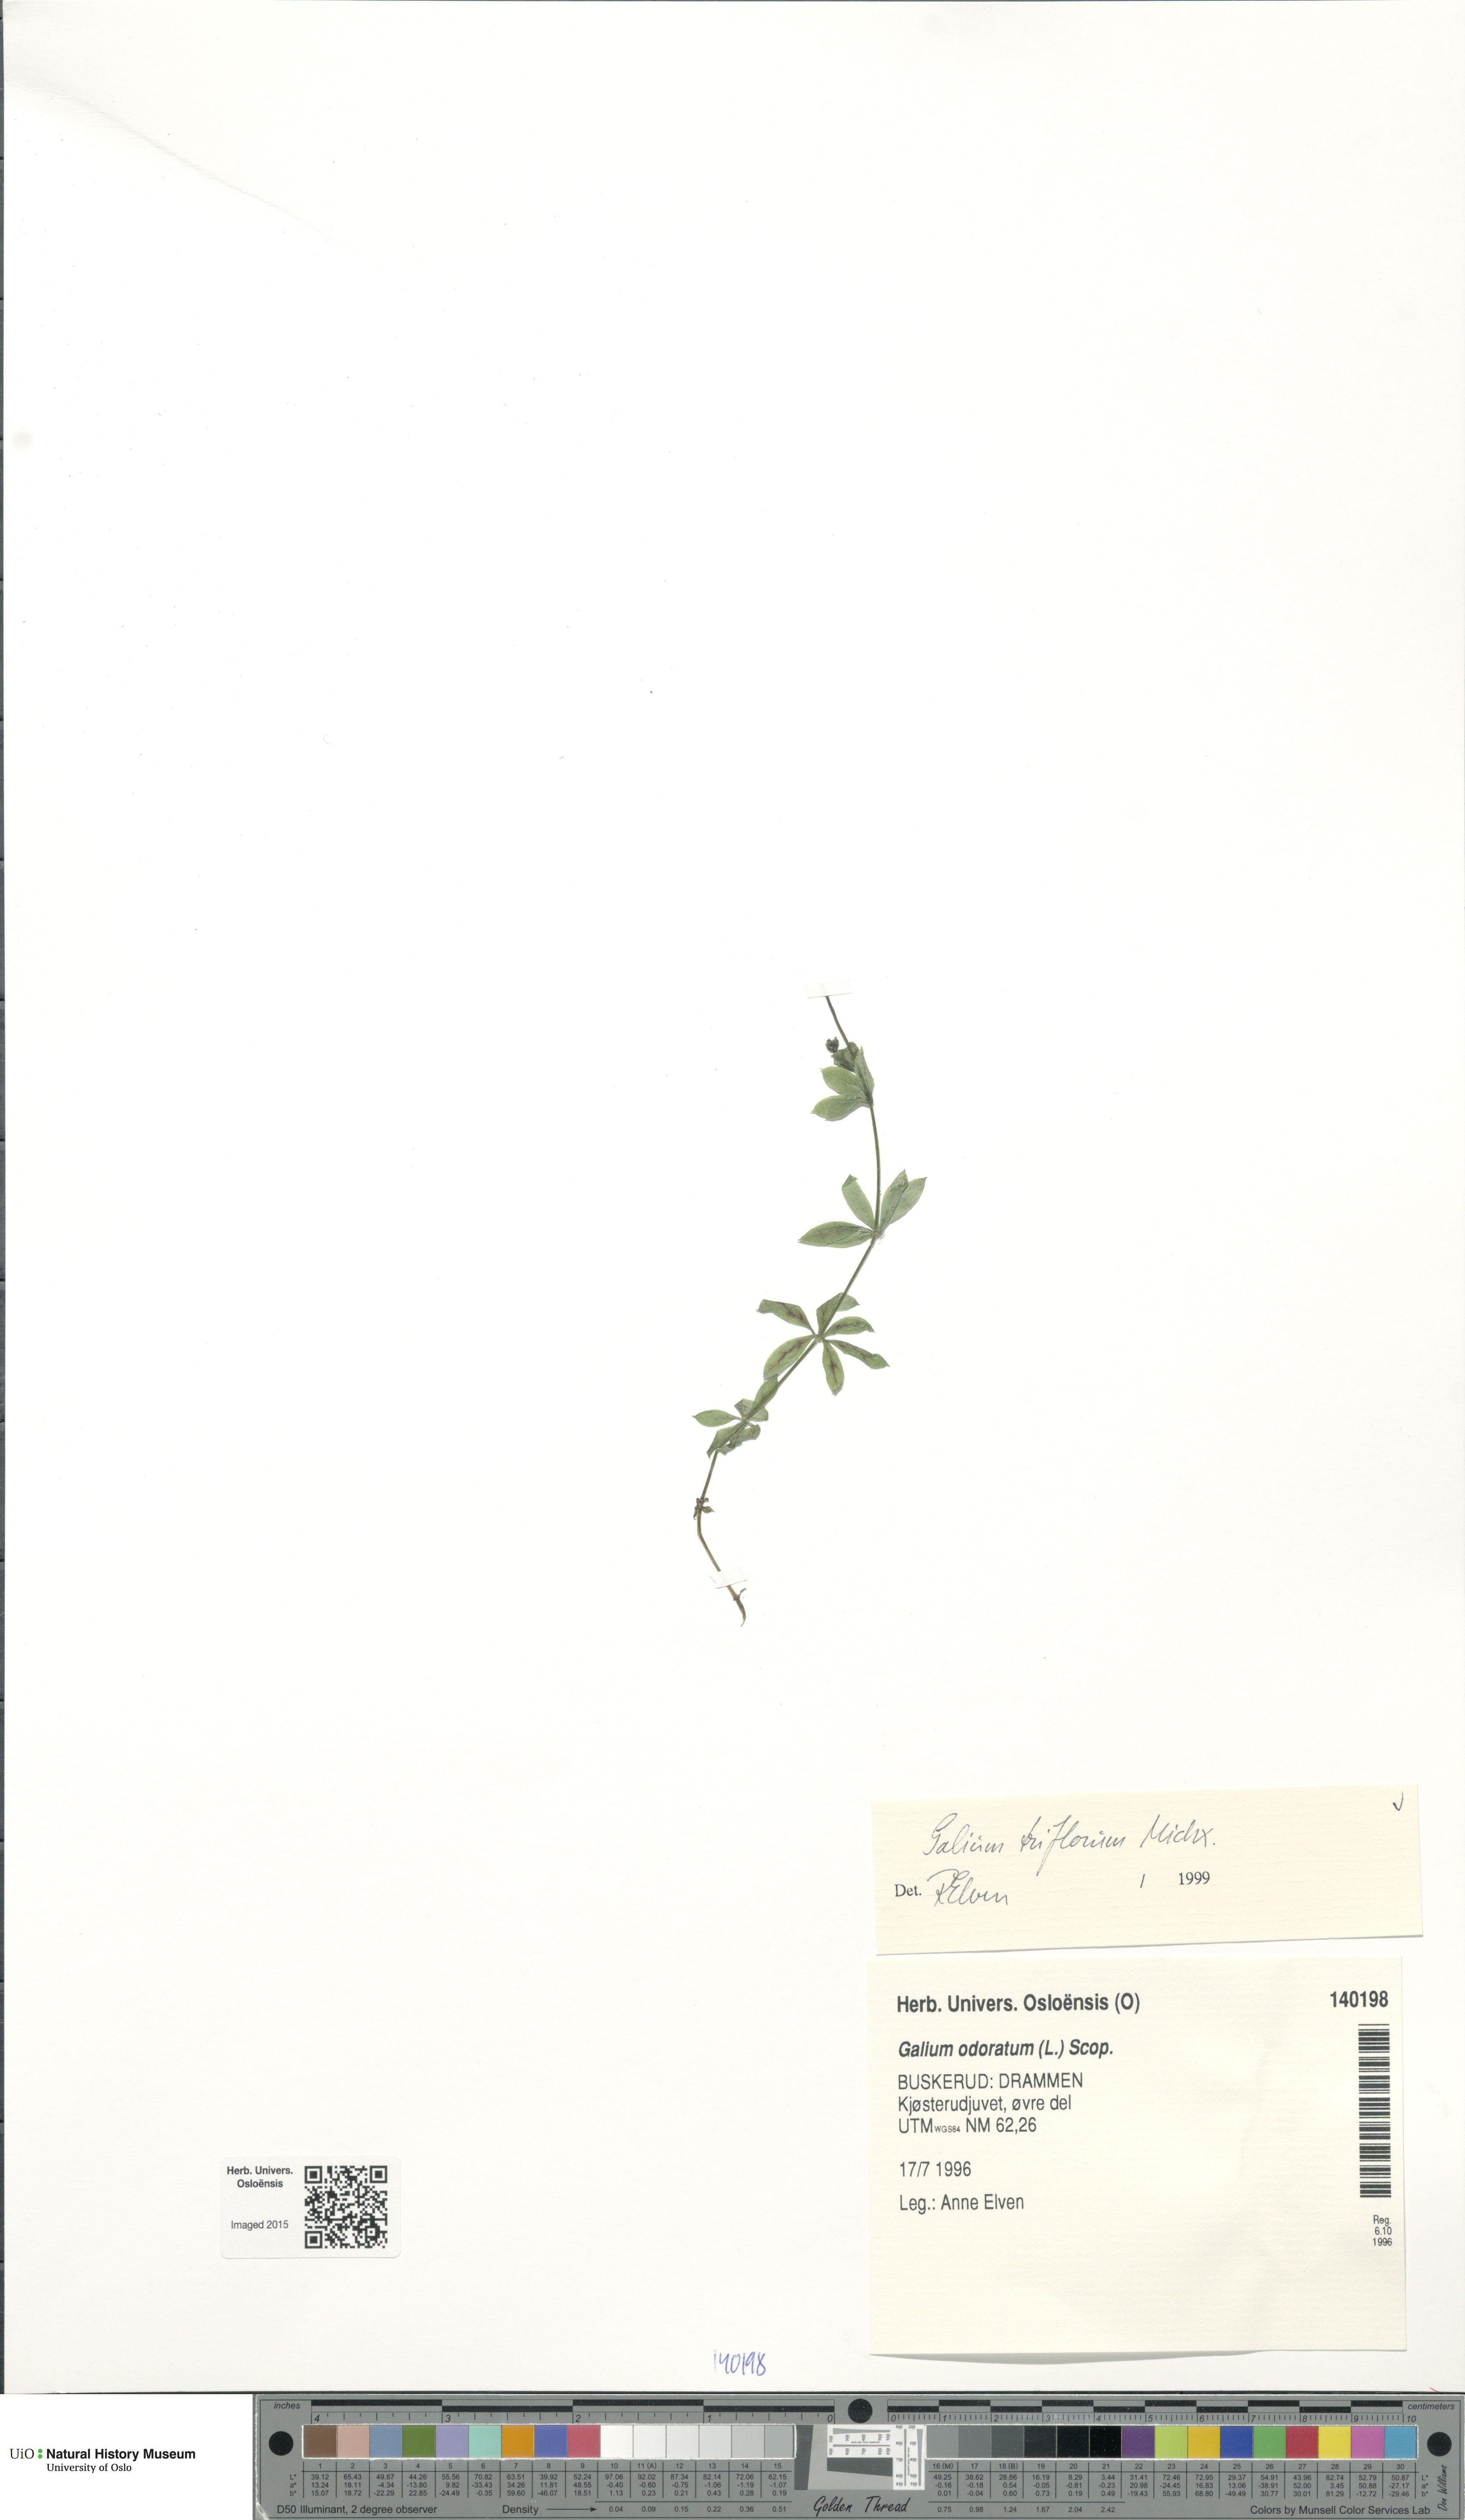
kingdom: Plantae
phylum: Tracheophyta
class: Magnoliopsida
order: Gentianales
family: Rubiaceae
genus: Galium
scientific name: Galium triflorum
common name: Fragrant bedstraw
